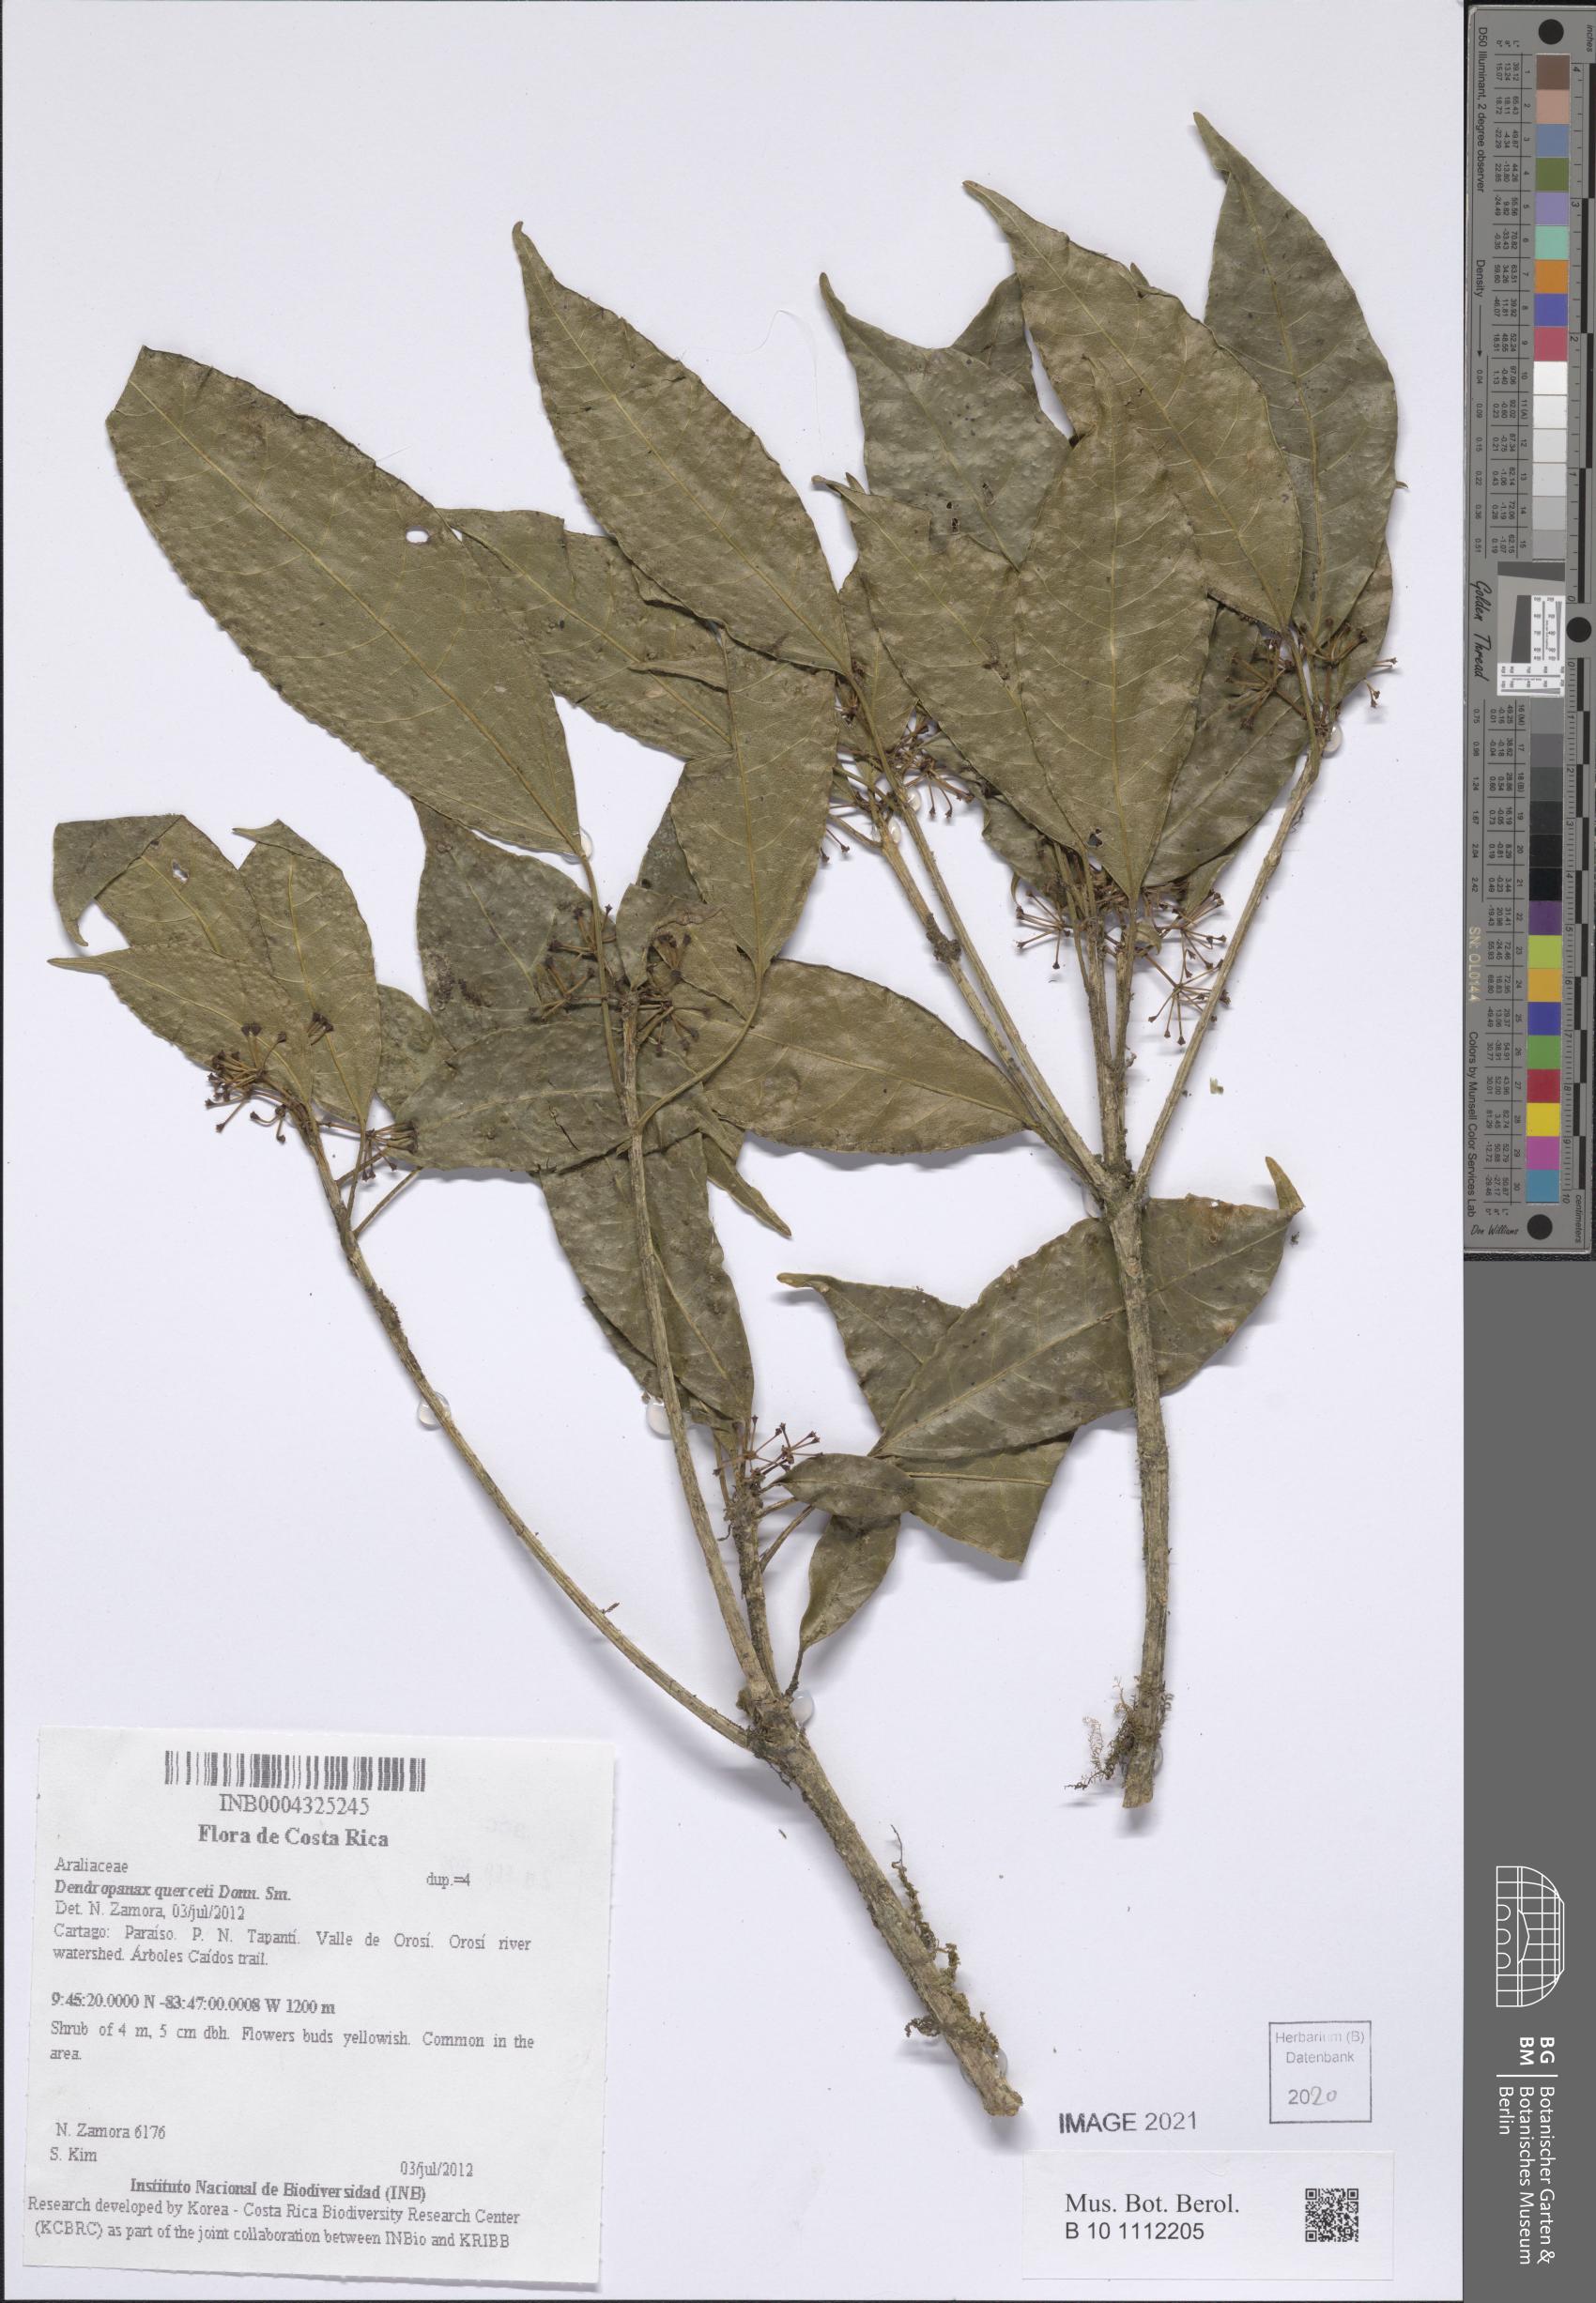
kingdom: Plantae
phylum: Tracheophyta
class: Magnoliopsida
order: Apiales
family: Araliaceae
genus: Dendropanax
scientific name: Dendropanax querceti
